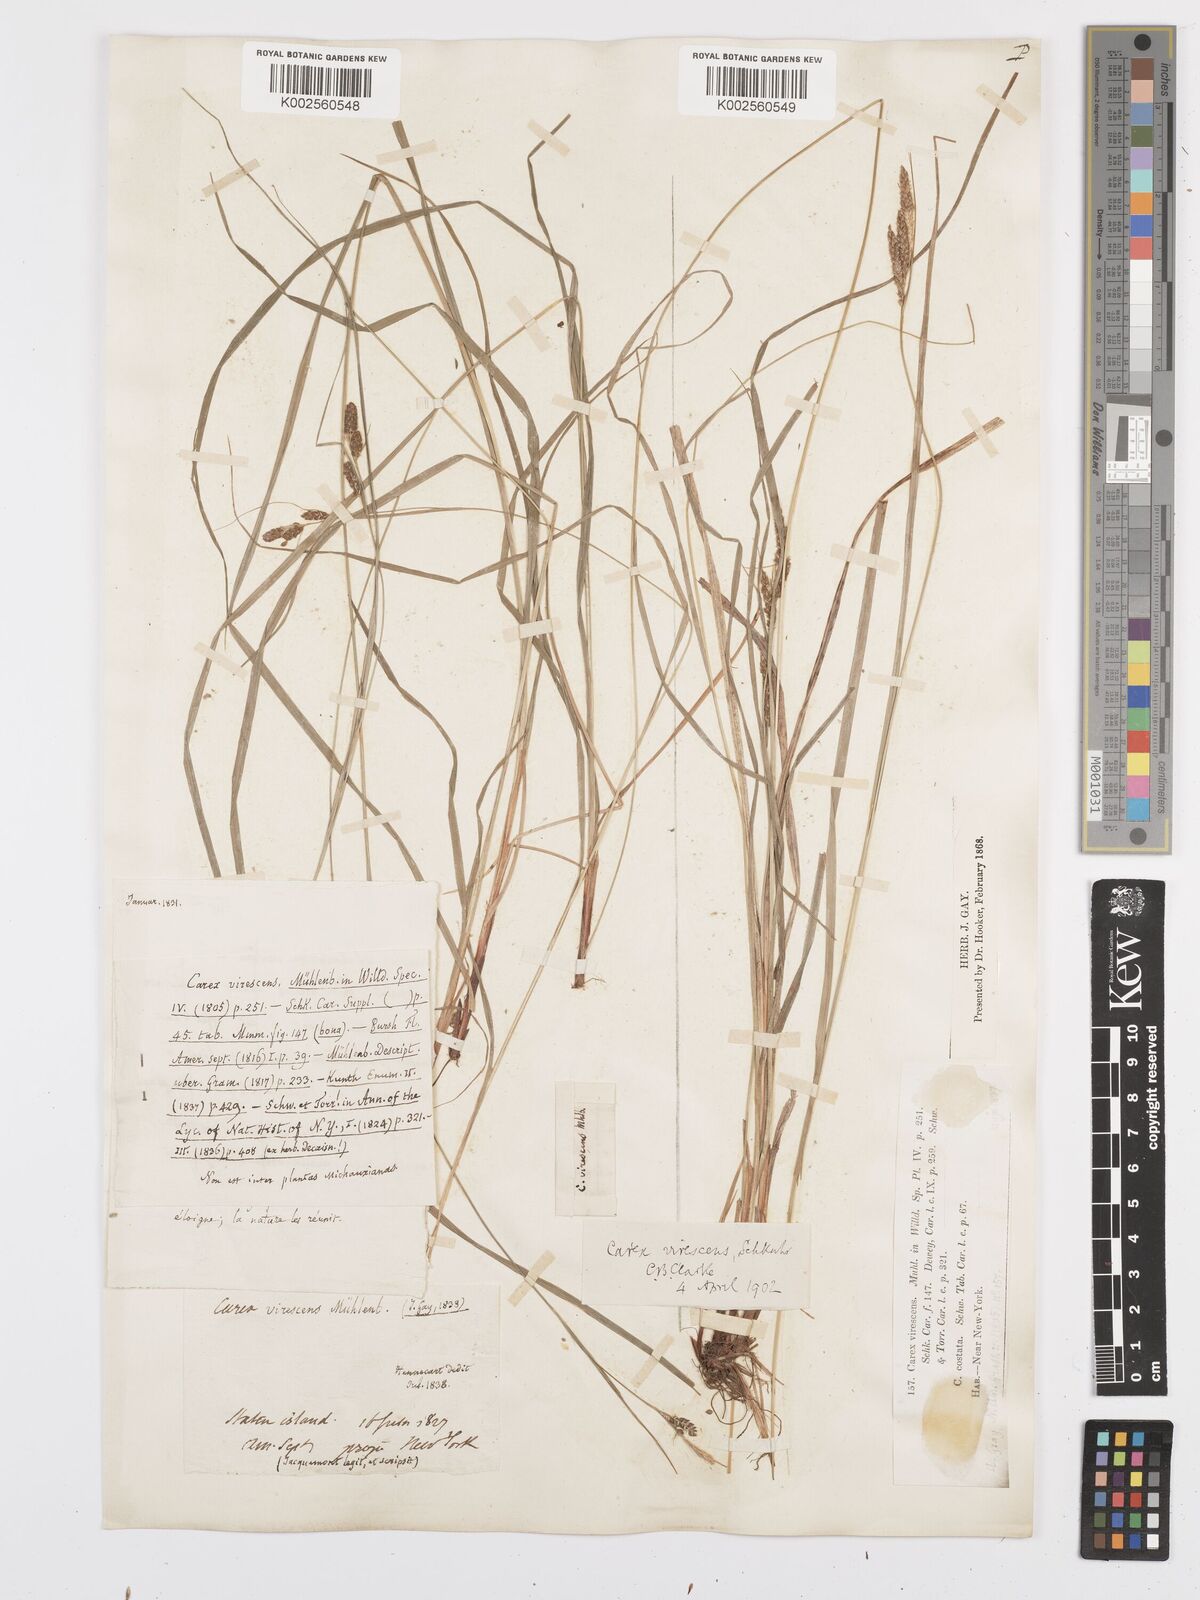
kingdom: Plantae
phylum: Tracheophyta
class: Liliopsida
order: Poales
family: Cyperaceae
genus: Carex
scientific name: Carex virescens
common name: Ribbed sedge
